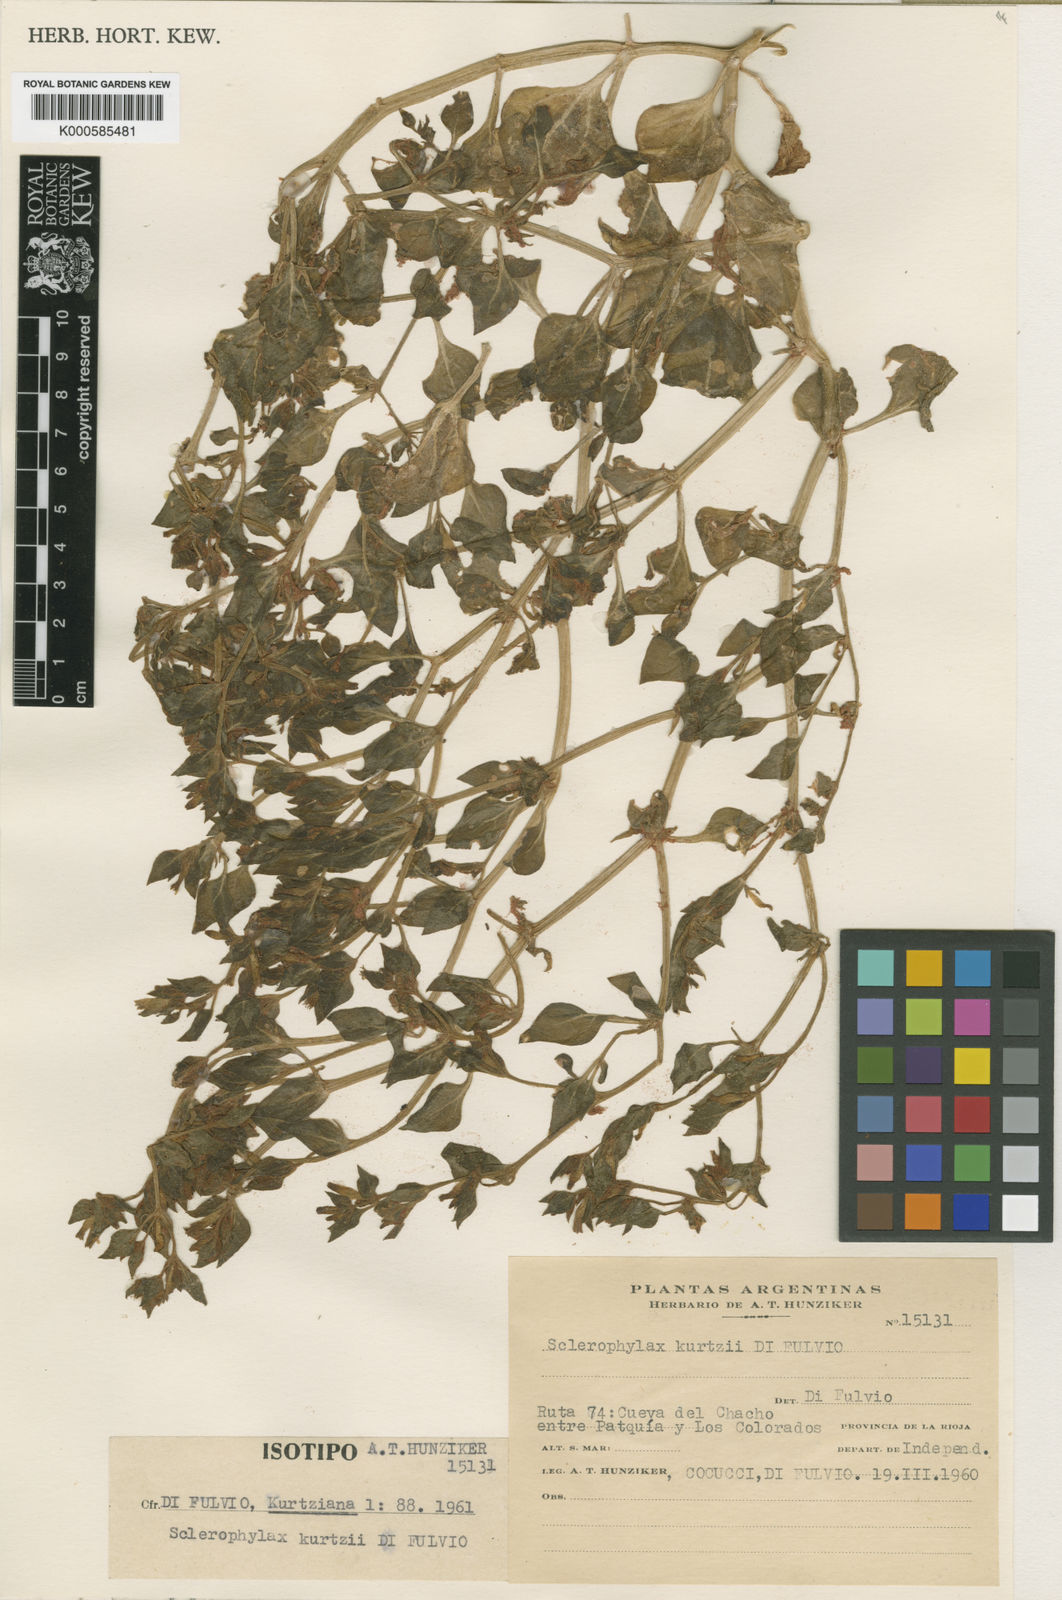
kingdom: Plantae
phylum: Tracheophyta
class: Magnoliopsida
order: Solanales
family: Solanaceae
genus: Sclerophylax
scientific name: Sclerophylax kurtzii
